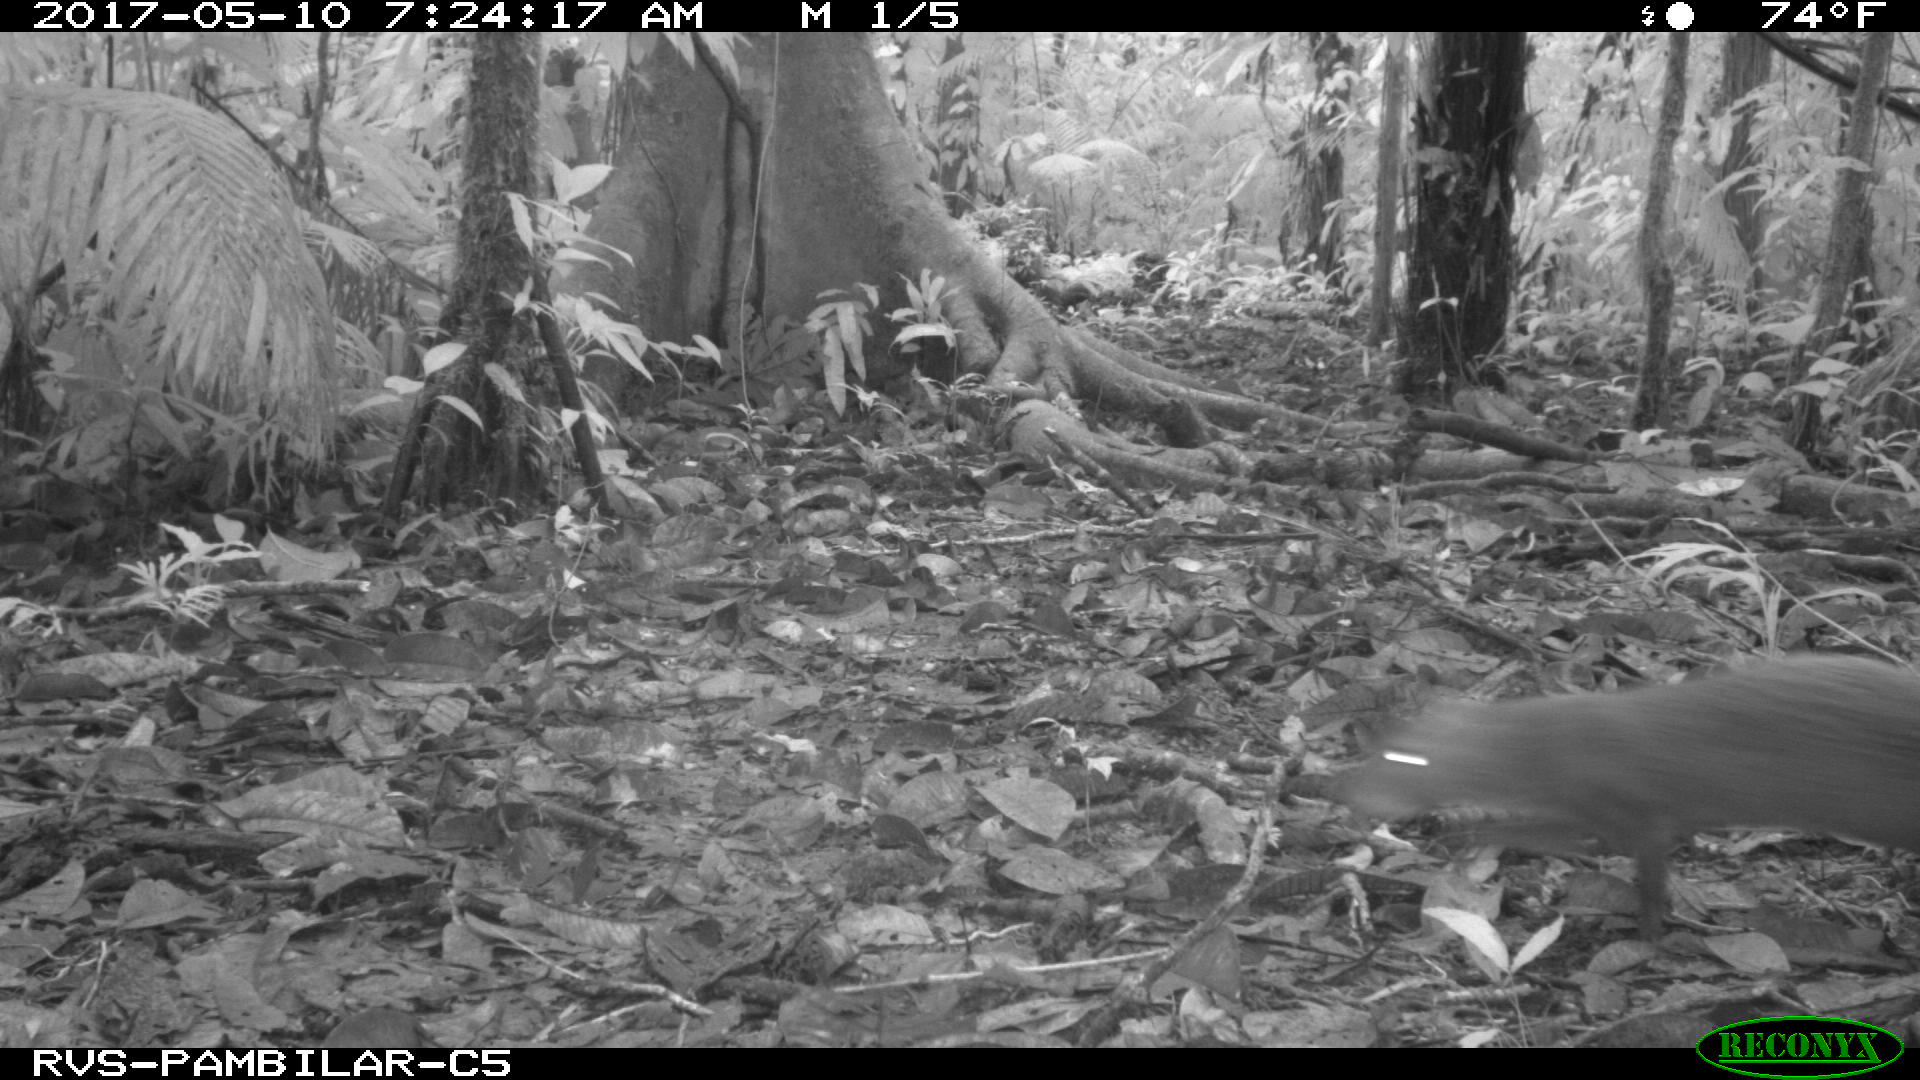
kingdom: Animalia
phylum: Chordata
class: Mammalia
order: Rodentia
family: Dasyproctidae
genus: Dasyprocta
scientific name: Dasyprocta punctata
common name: Central american agouti
